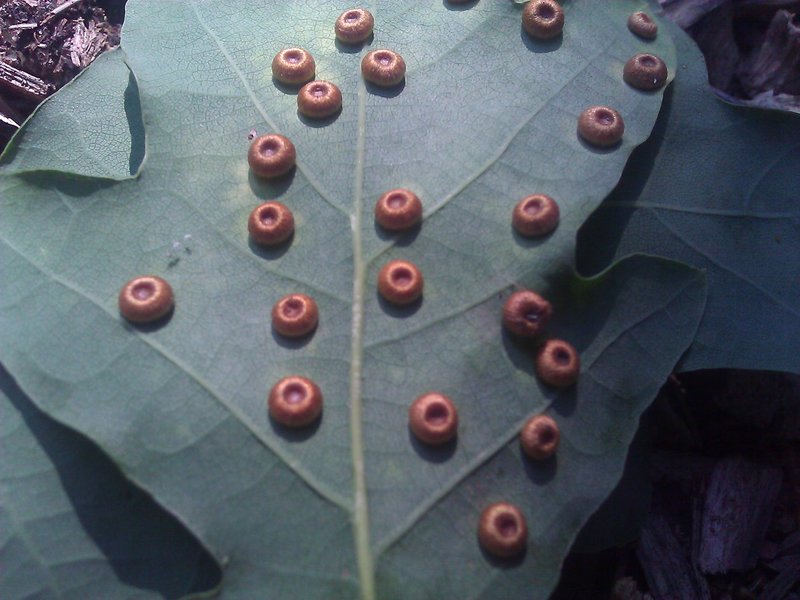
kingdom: Animalia
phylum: Arthropoda
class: Insecta
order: Hymenoptera
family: Cynipidae
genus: Neuroterus
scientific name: Neuroterus numismalis
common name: Silk-button spangle gall
